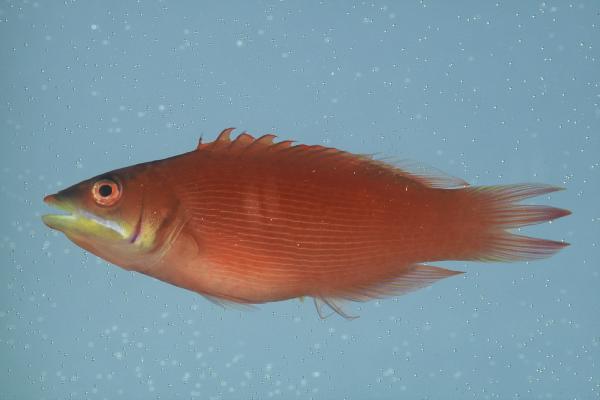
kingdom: Animalia
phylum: Chordata
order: Perciformes
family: Labridae
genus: Pseudocheilinus
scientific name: Pseudocheilinus evanidus
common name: Disappearing wrasse
